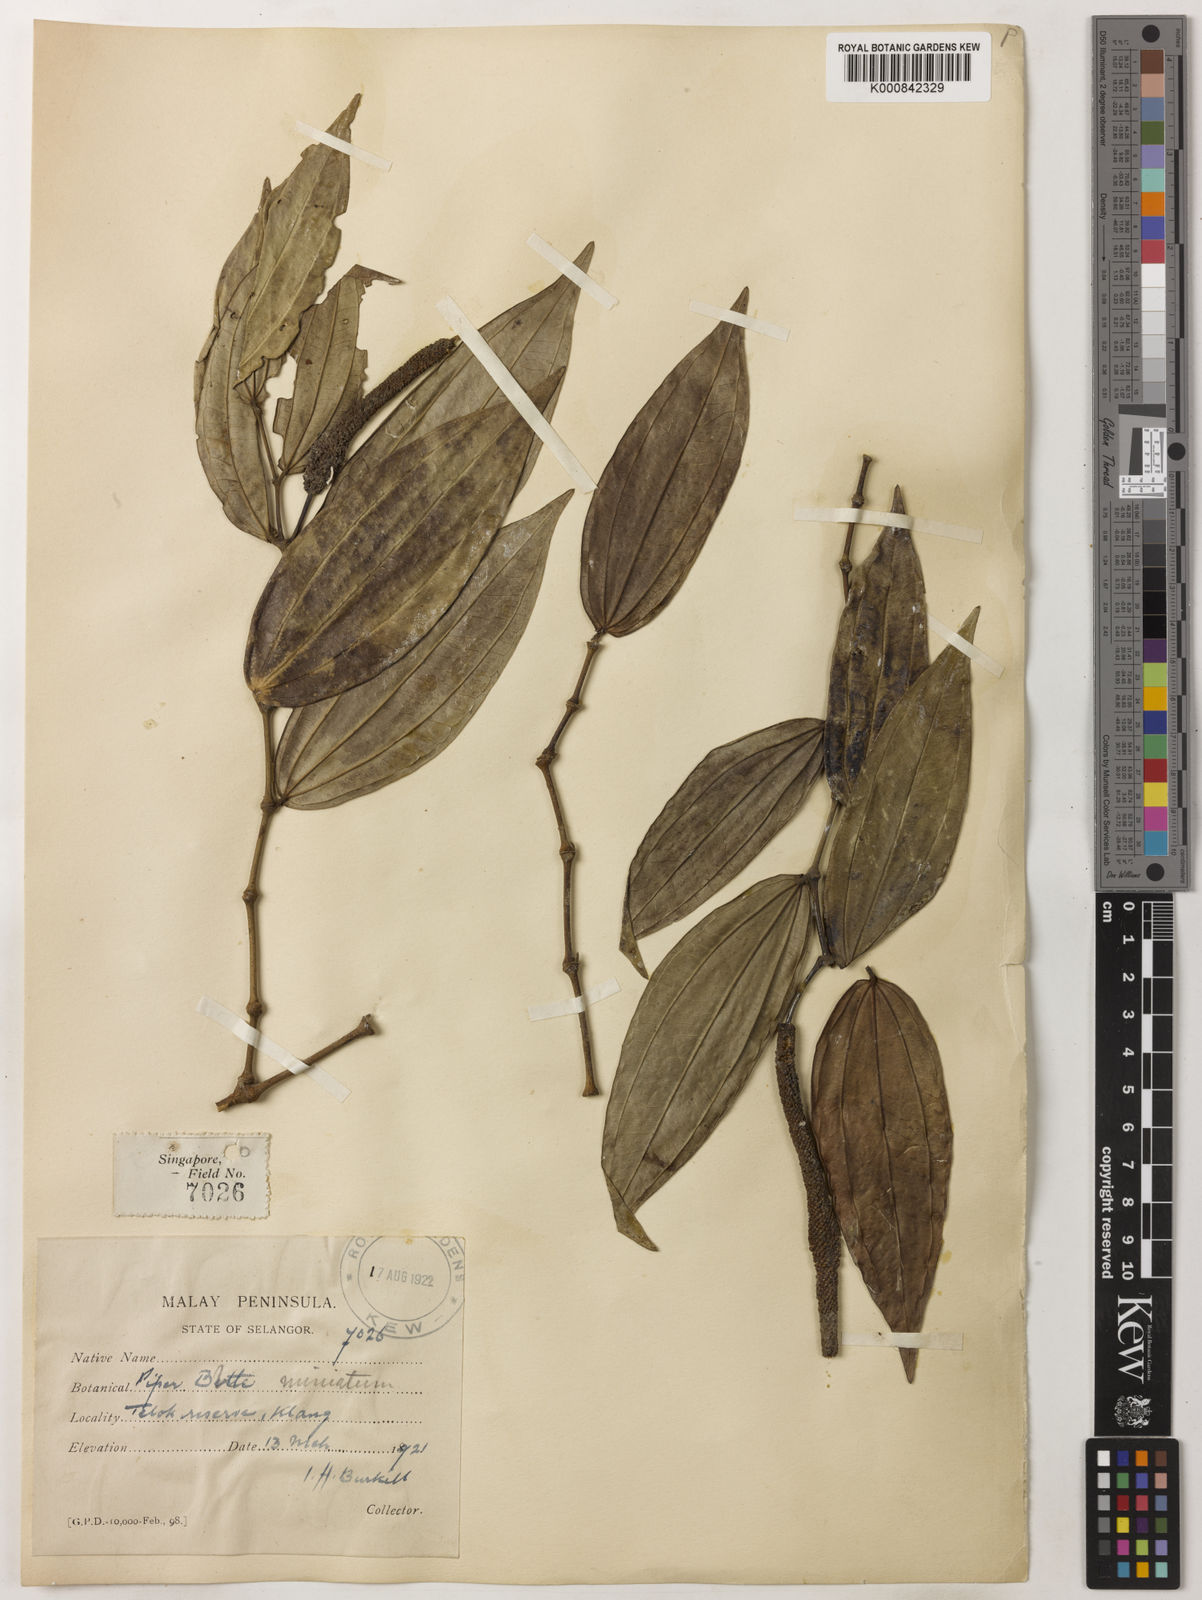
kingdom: Plantae
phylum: Tracheophyta
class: Magnoliopsida
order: Piperales
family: Piperaceae
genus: Piper
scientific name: Piper macropiper
